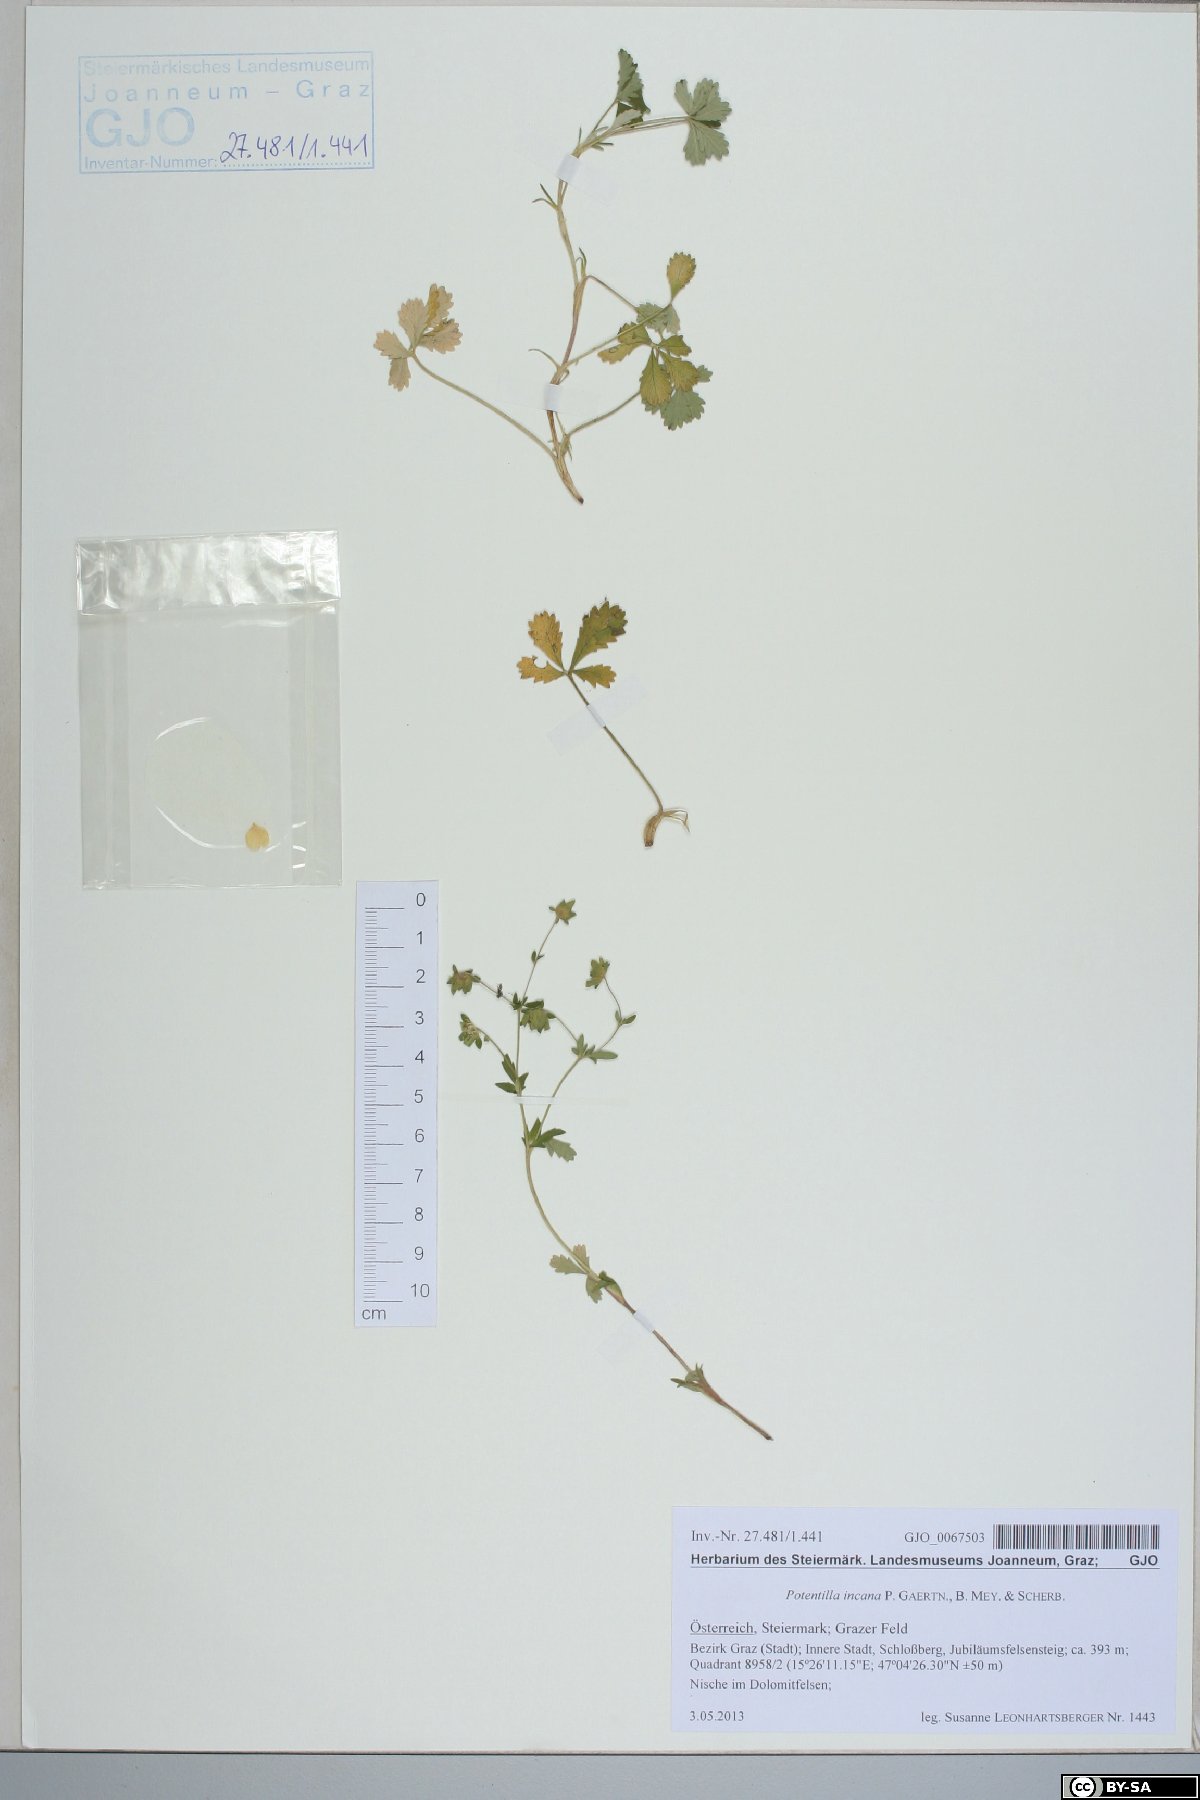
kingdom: Plantae
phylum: Tracheophyta
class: Magnoliopsida
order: Rosales
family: Rosaceae
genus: Potentilla
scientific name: Potentilla cinerea
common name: Ashy cinquefoil
